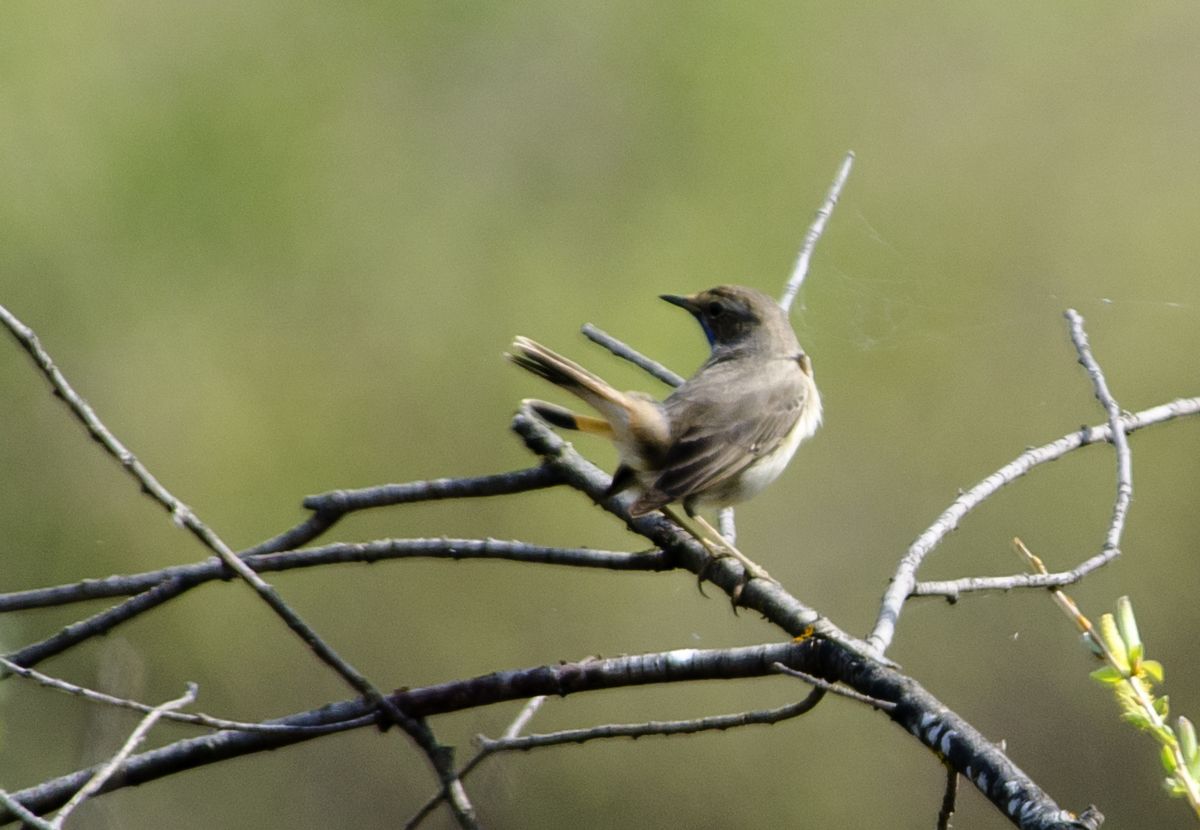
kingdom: Animalia
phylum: Chordata
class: Aves
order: Passeriformes
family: Muscicapidae
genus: Luscinia
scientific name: Luscinia svecica
